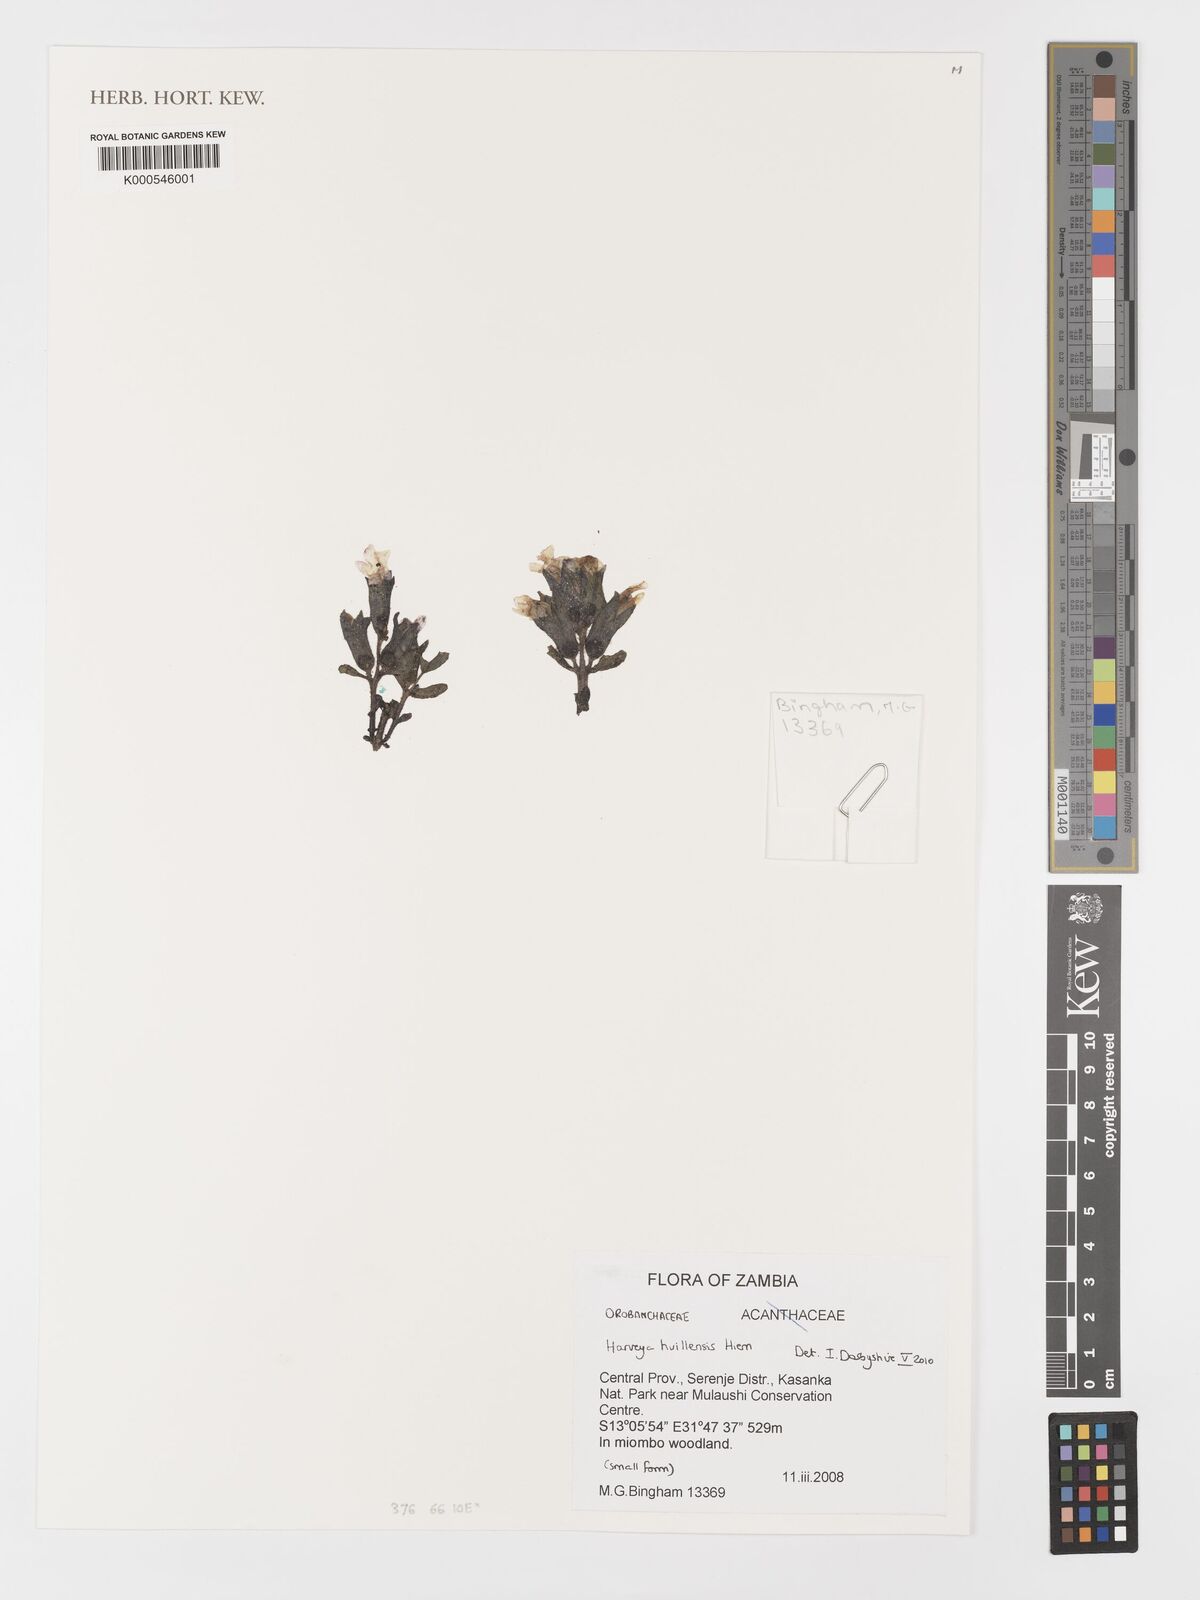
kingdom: Plantae
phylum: Tracheophyta
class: Magnoliopsida
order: Lamiales
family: Orobanchaceae
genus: Harveya
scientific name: Harveya huillensis
